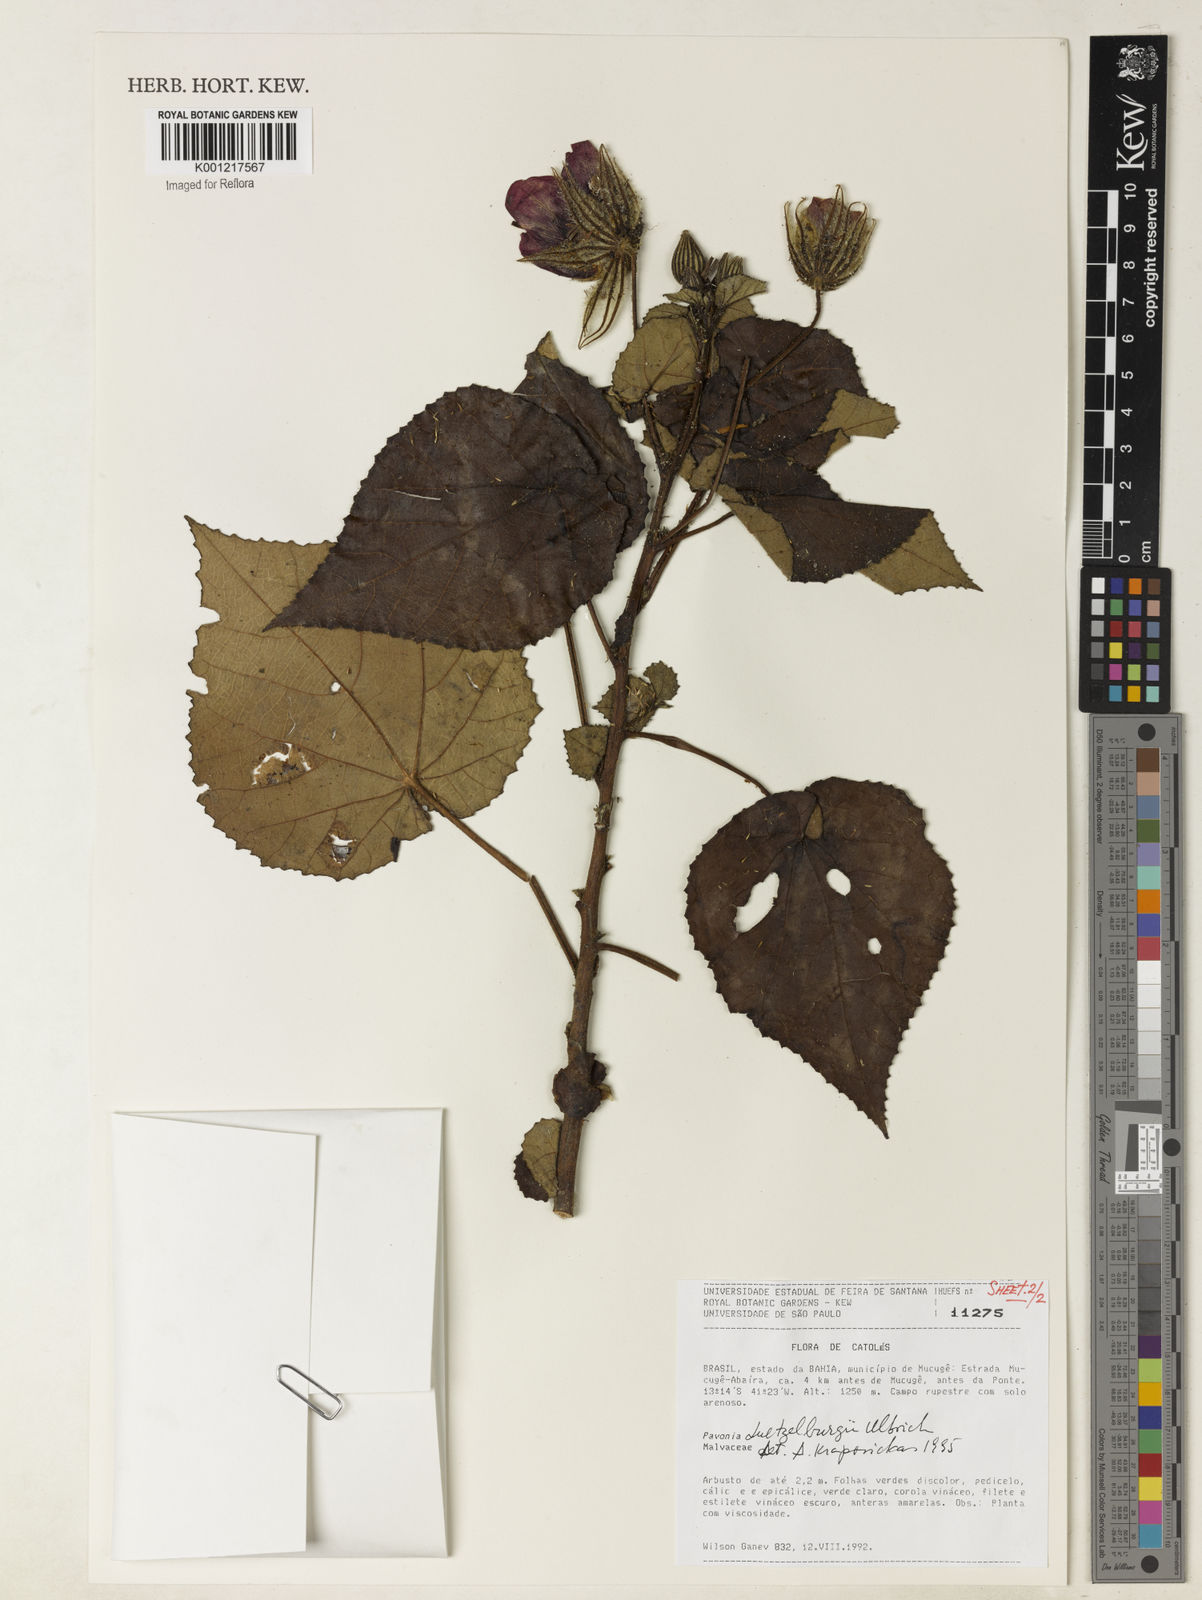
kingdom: Plantae
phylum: Tracheophyta
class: Magnoliopsida
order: Malvales
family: Malvaceae
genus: Pavonia
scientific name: Pavonia luetzelburgii
